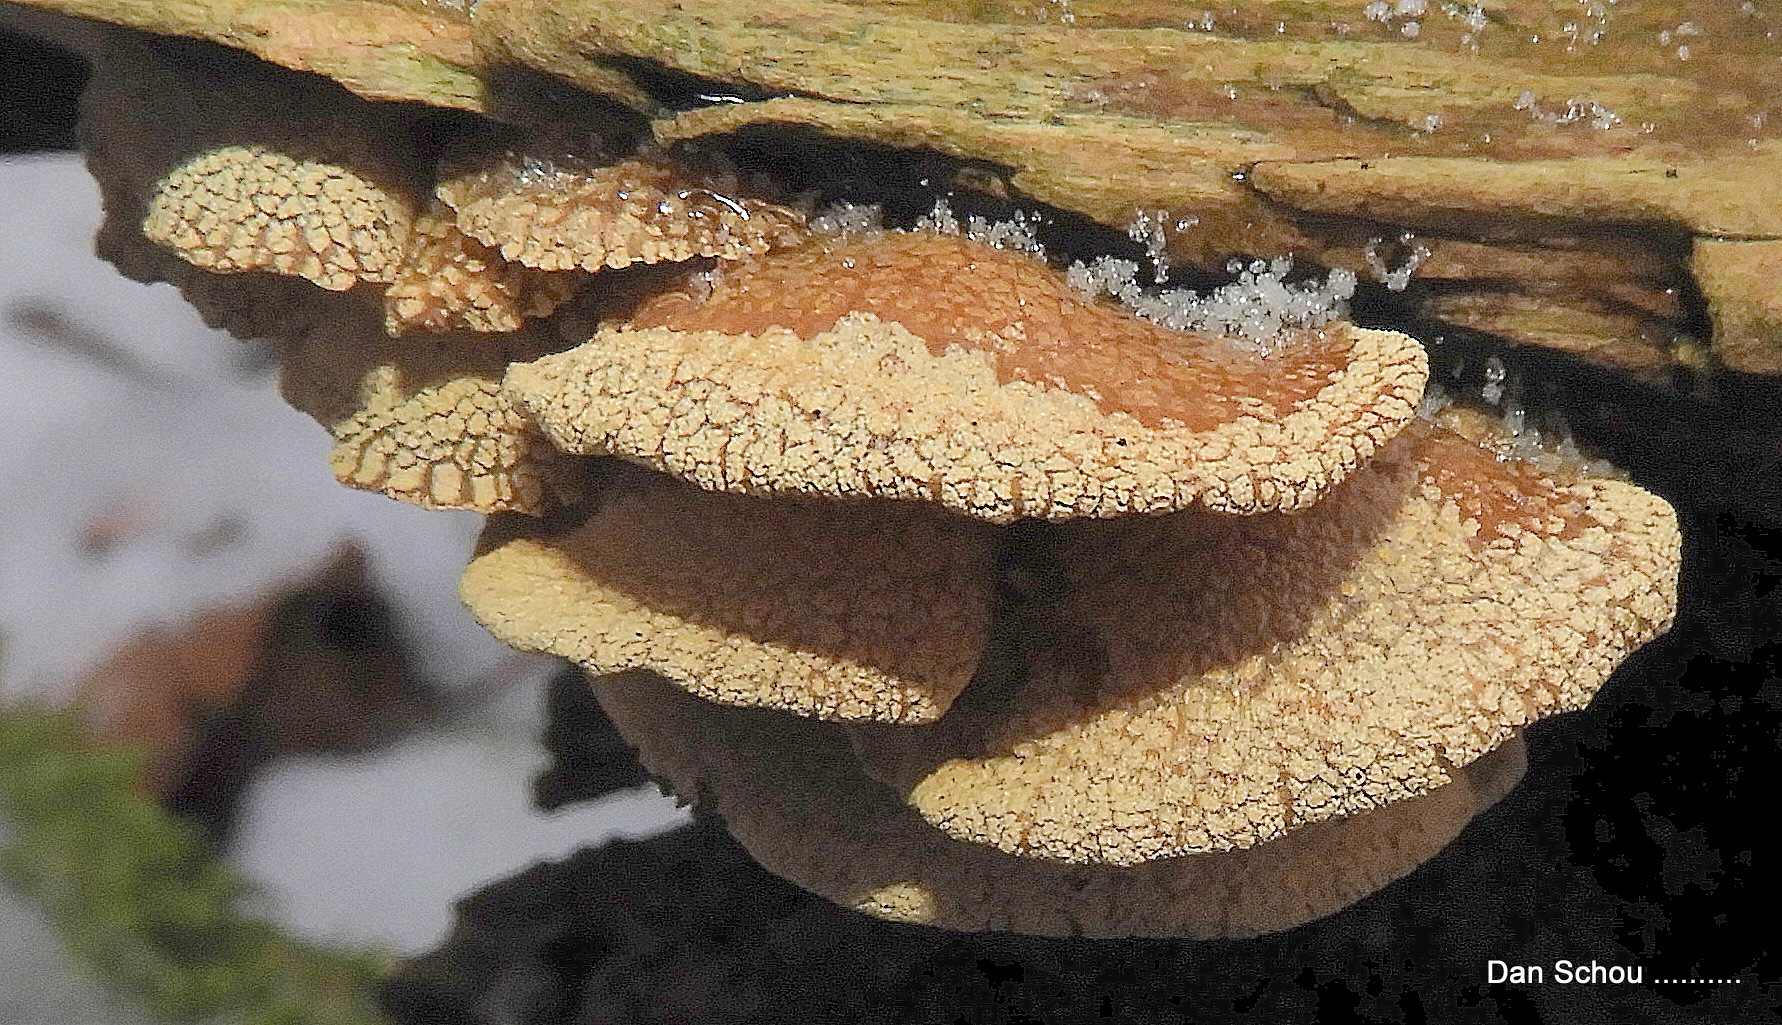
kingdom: Fungi
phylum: Basidiomycota
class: Agaricomycetes
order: Agaricales
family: Mycenaceae
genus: Panellus
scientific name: Panellus stipticus
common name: kliddet epaulethat
